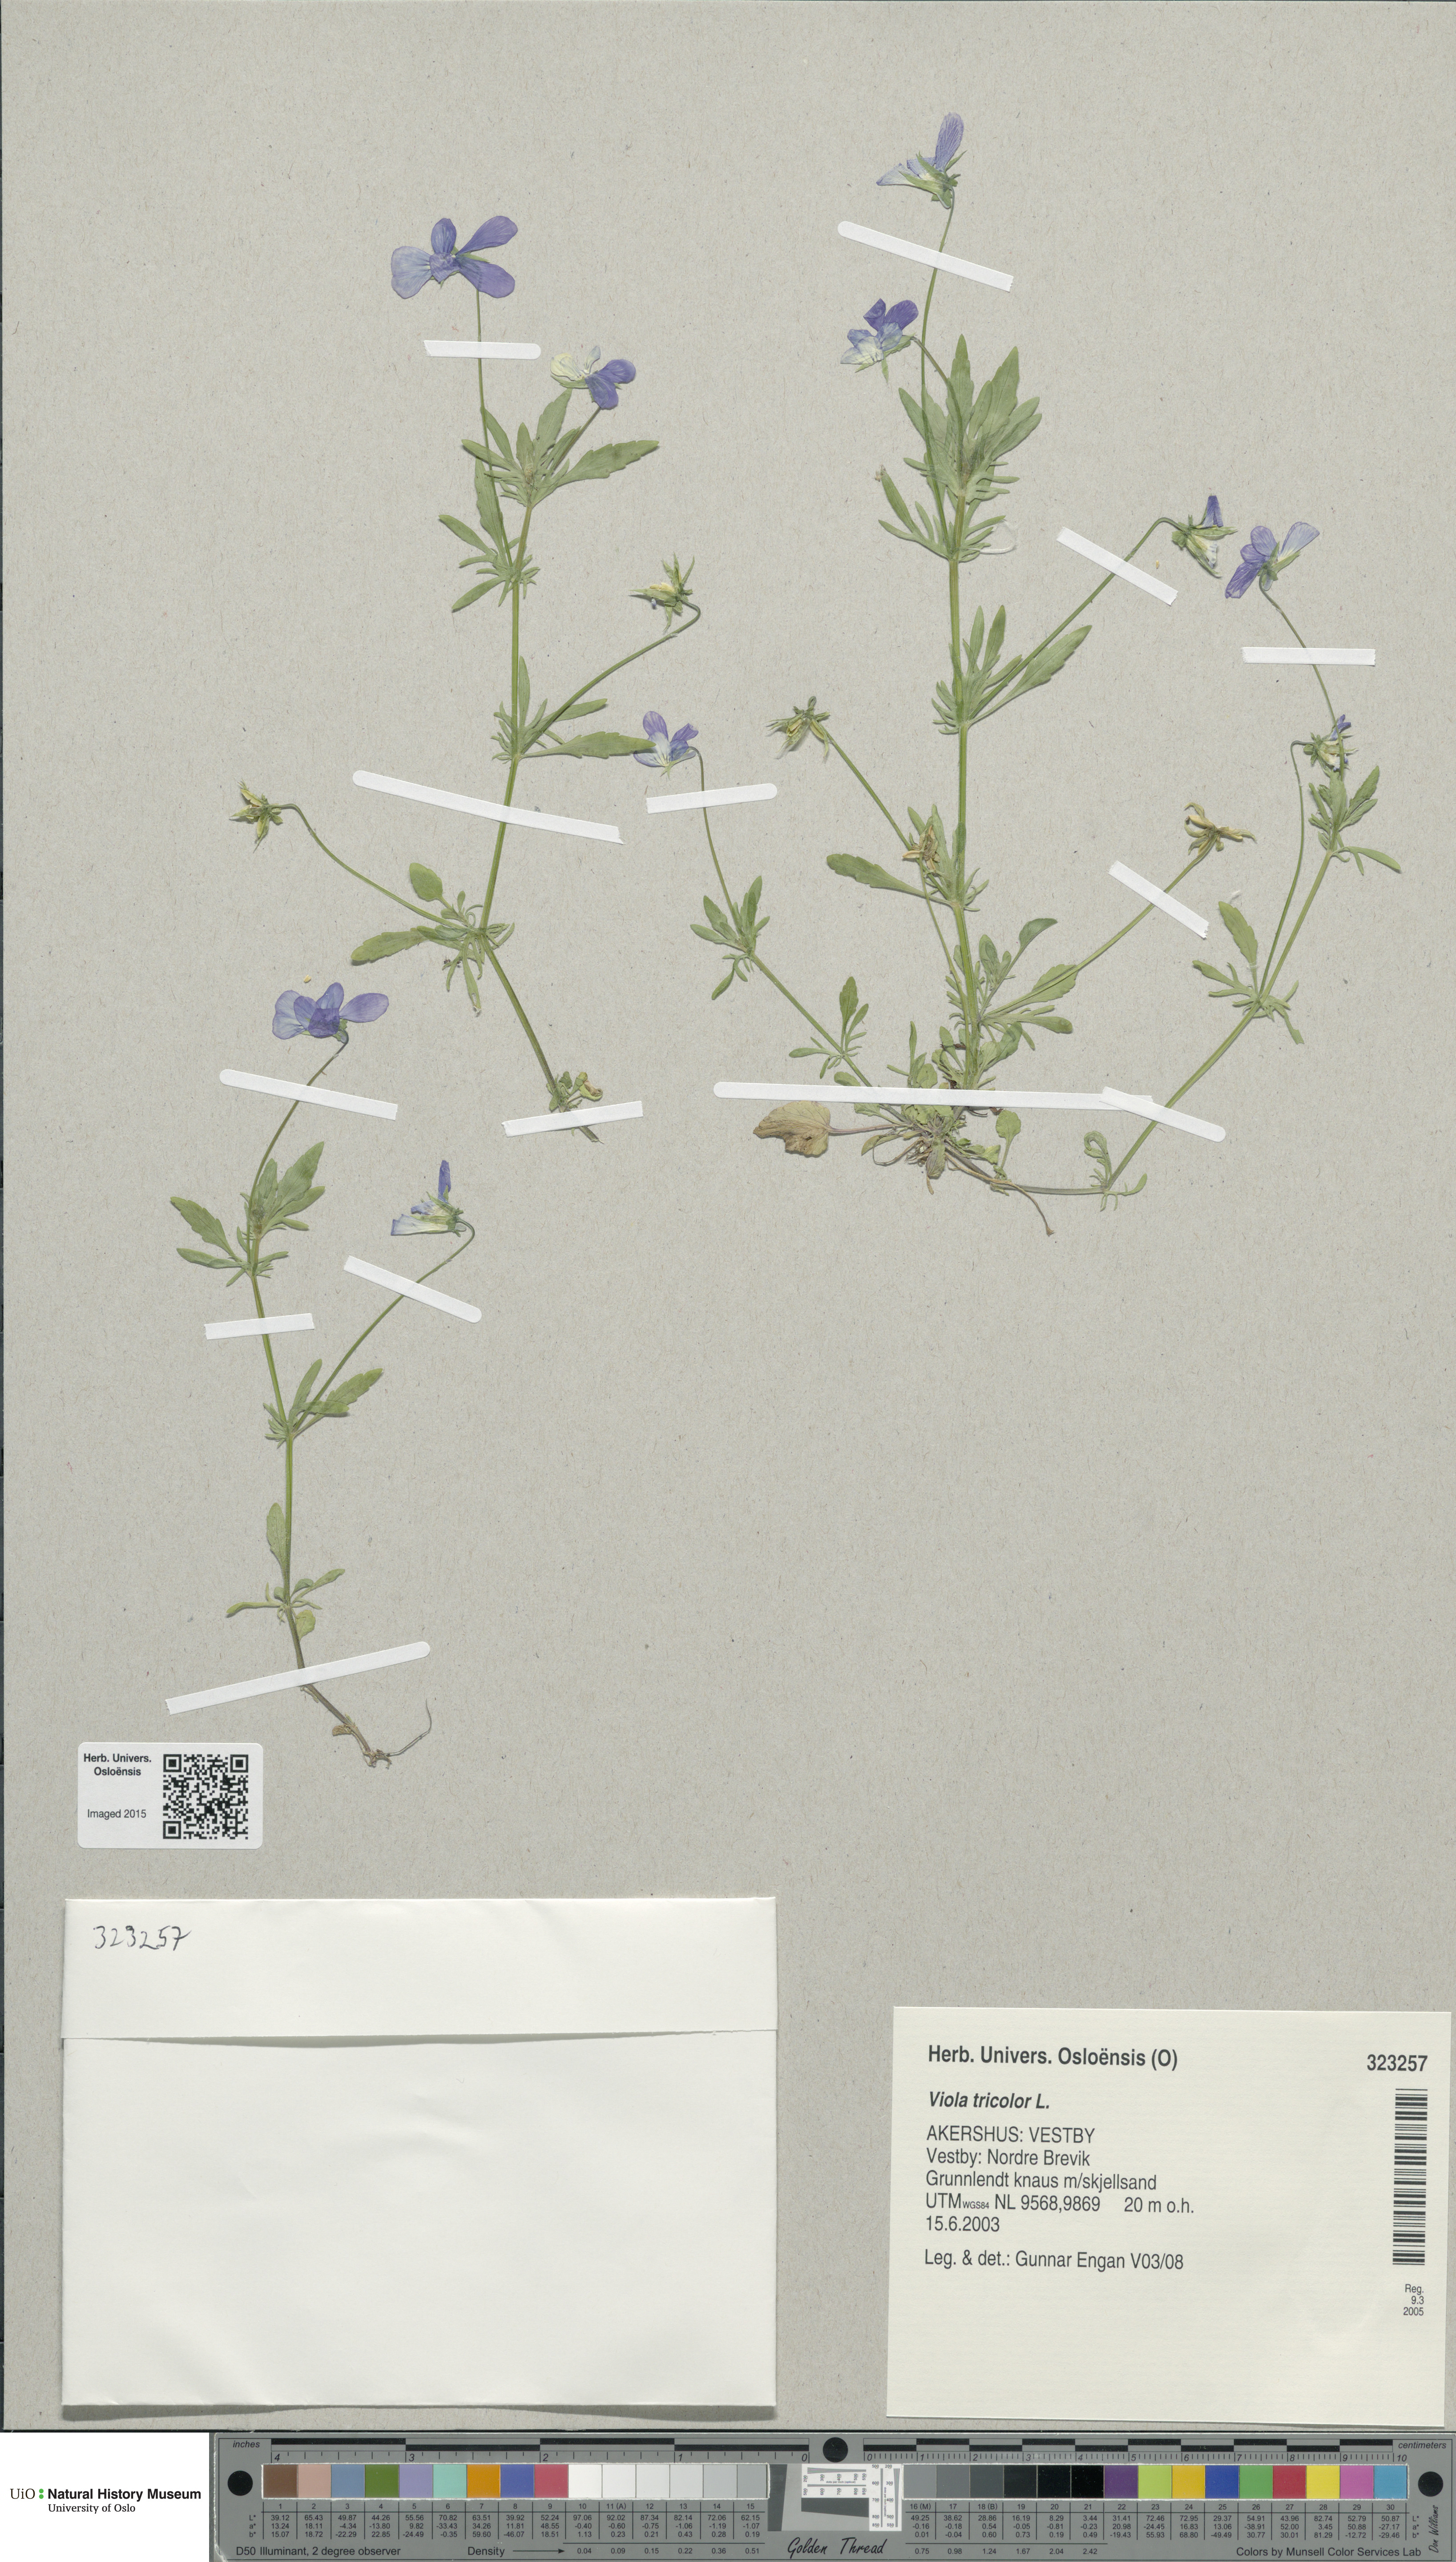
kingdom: Plantae
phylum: Tracheophyta
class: Magnoliopsida
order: Malpighiales
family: Violaceae
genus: Viola
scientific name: Viola tricolor
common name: Pansy
